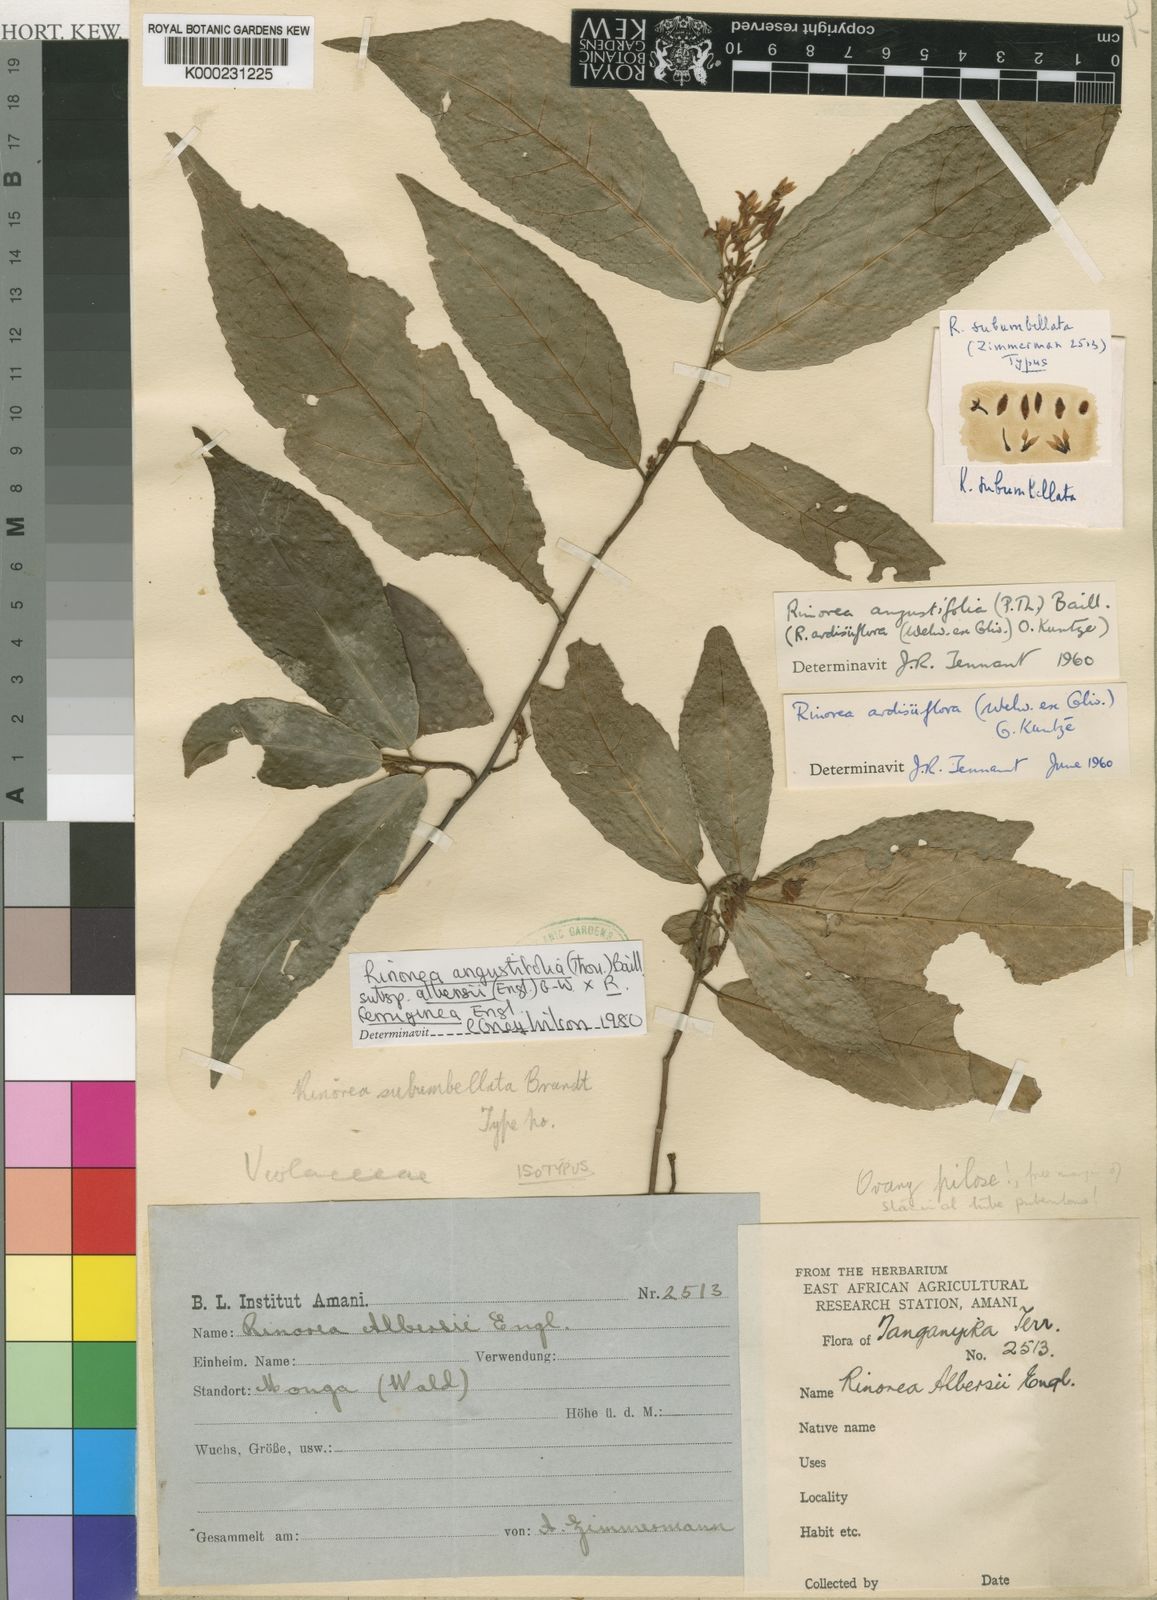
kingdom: Plantae
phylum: Tracheophyta
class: Magnoliopsida
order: Malpighiales
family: Violaceae
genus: Rinorea
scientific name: Rinorea angustifolia
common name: White violet-bush
